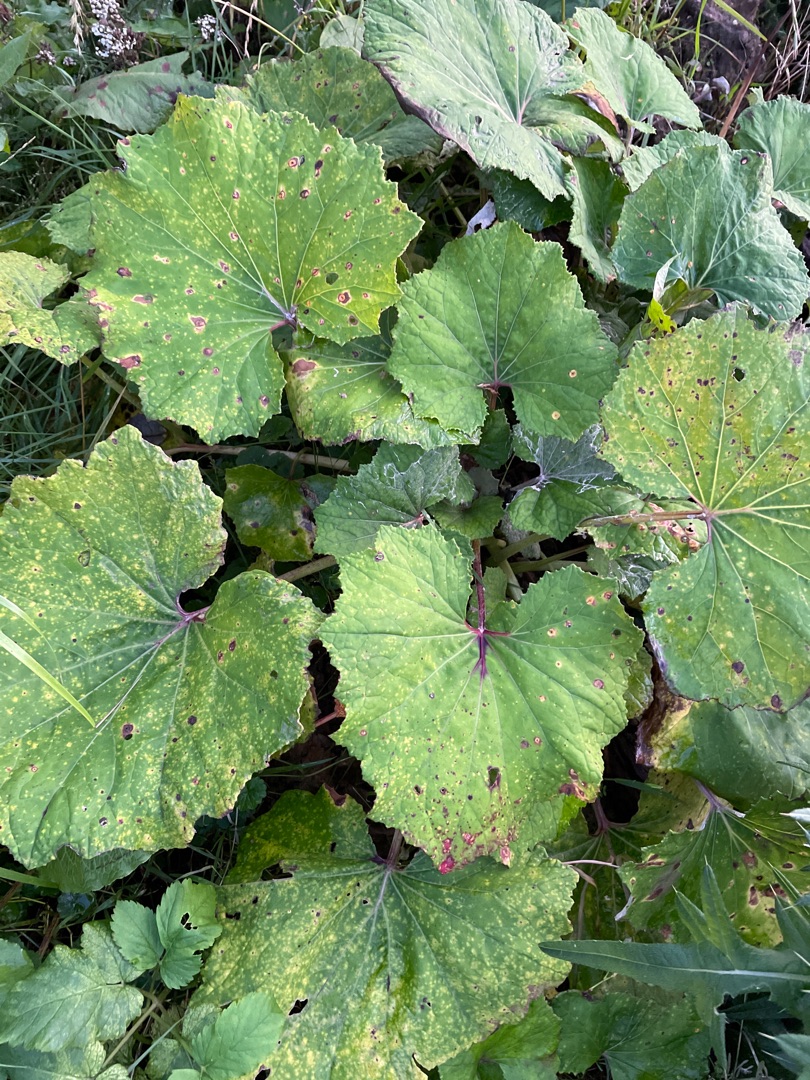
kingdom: Plantae
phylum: Tracheophyta
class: Magnoliopsida
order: Asterales
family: Asteraceae
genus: Tussilago
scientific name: Tussilago farfara
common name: Følfod
